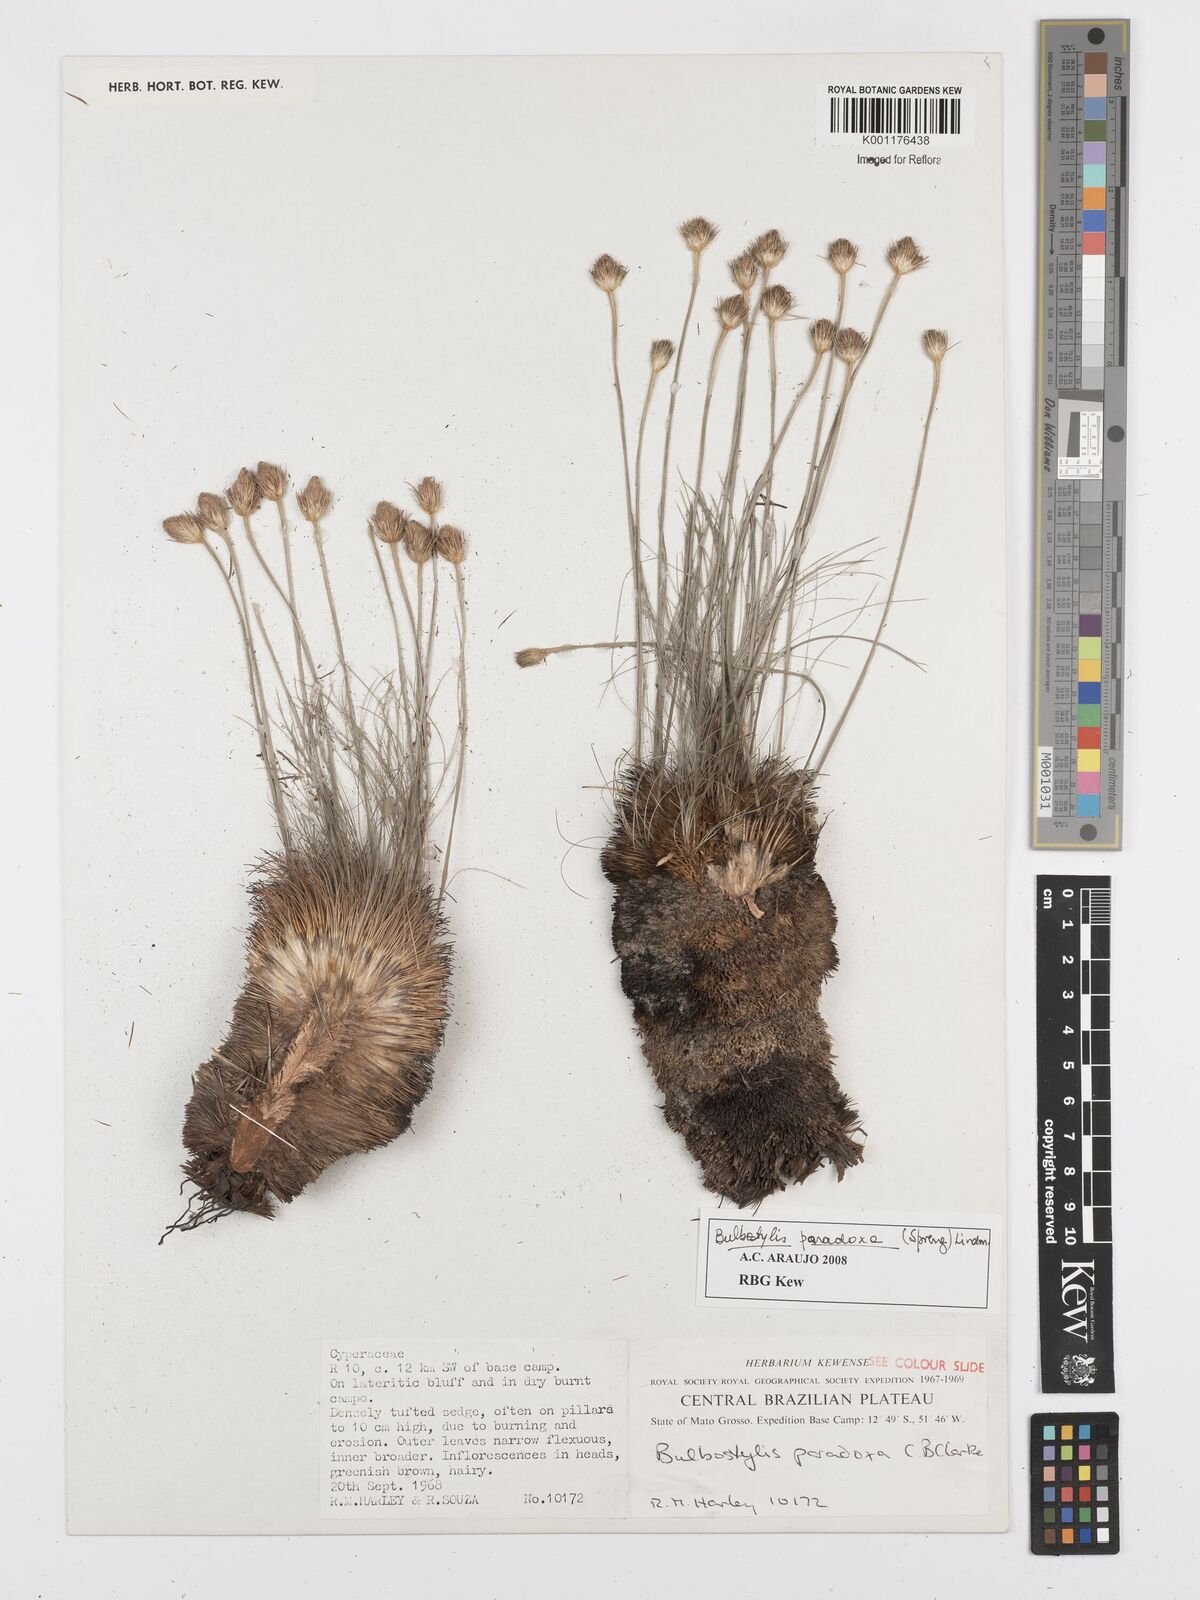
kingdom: Plantae
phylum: Tracheophyta
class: Liliopsida
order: Poales
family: Cyperaceae
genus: Bulbostylis
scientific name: Bulbostylis paradoxa
